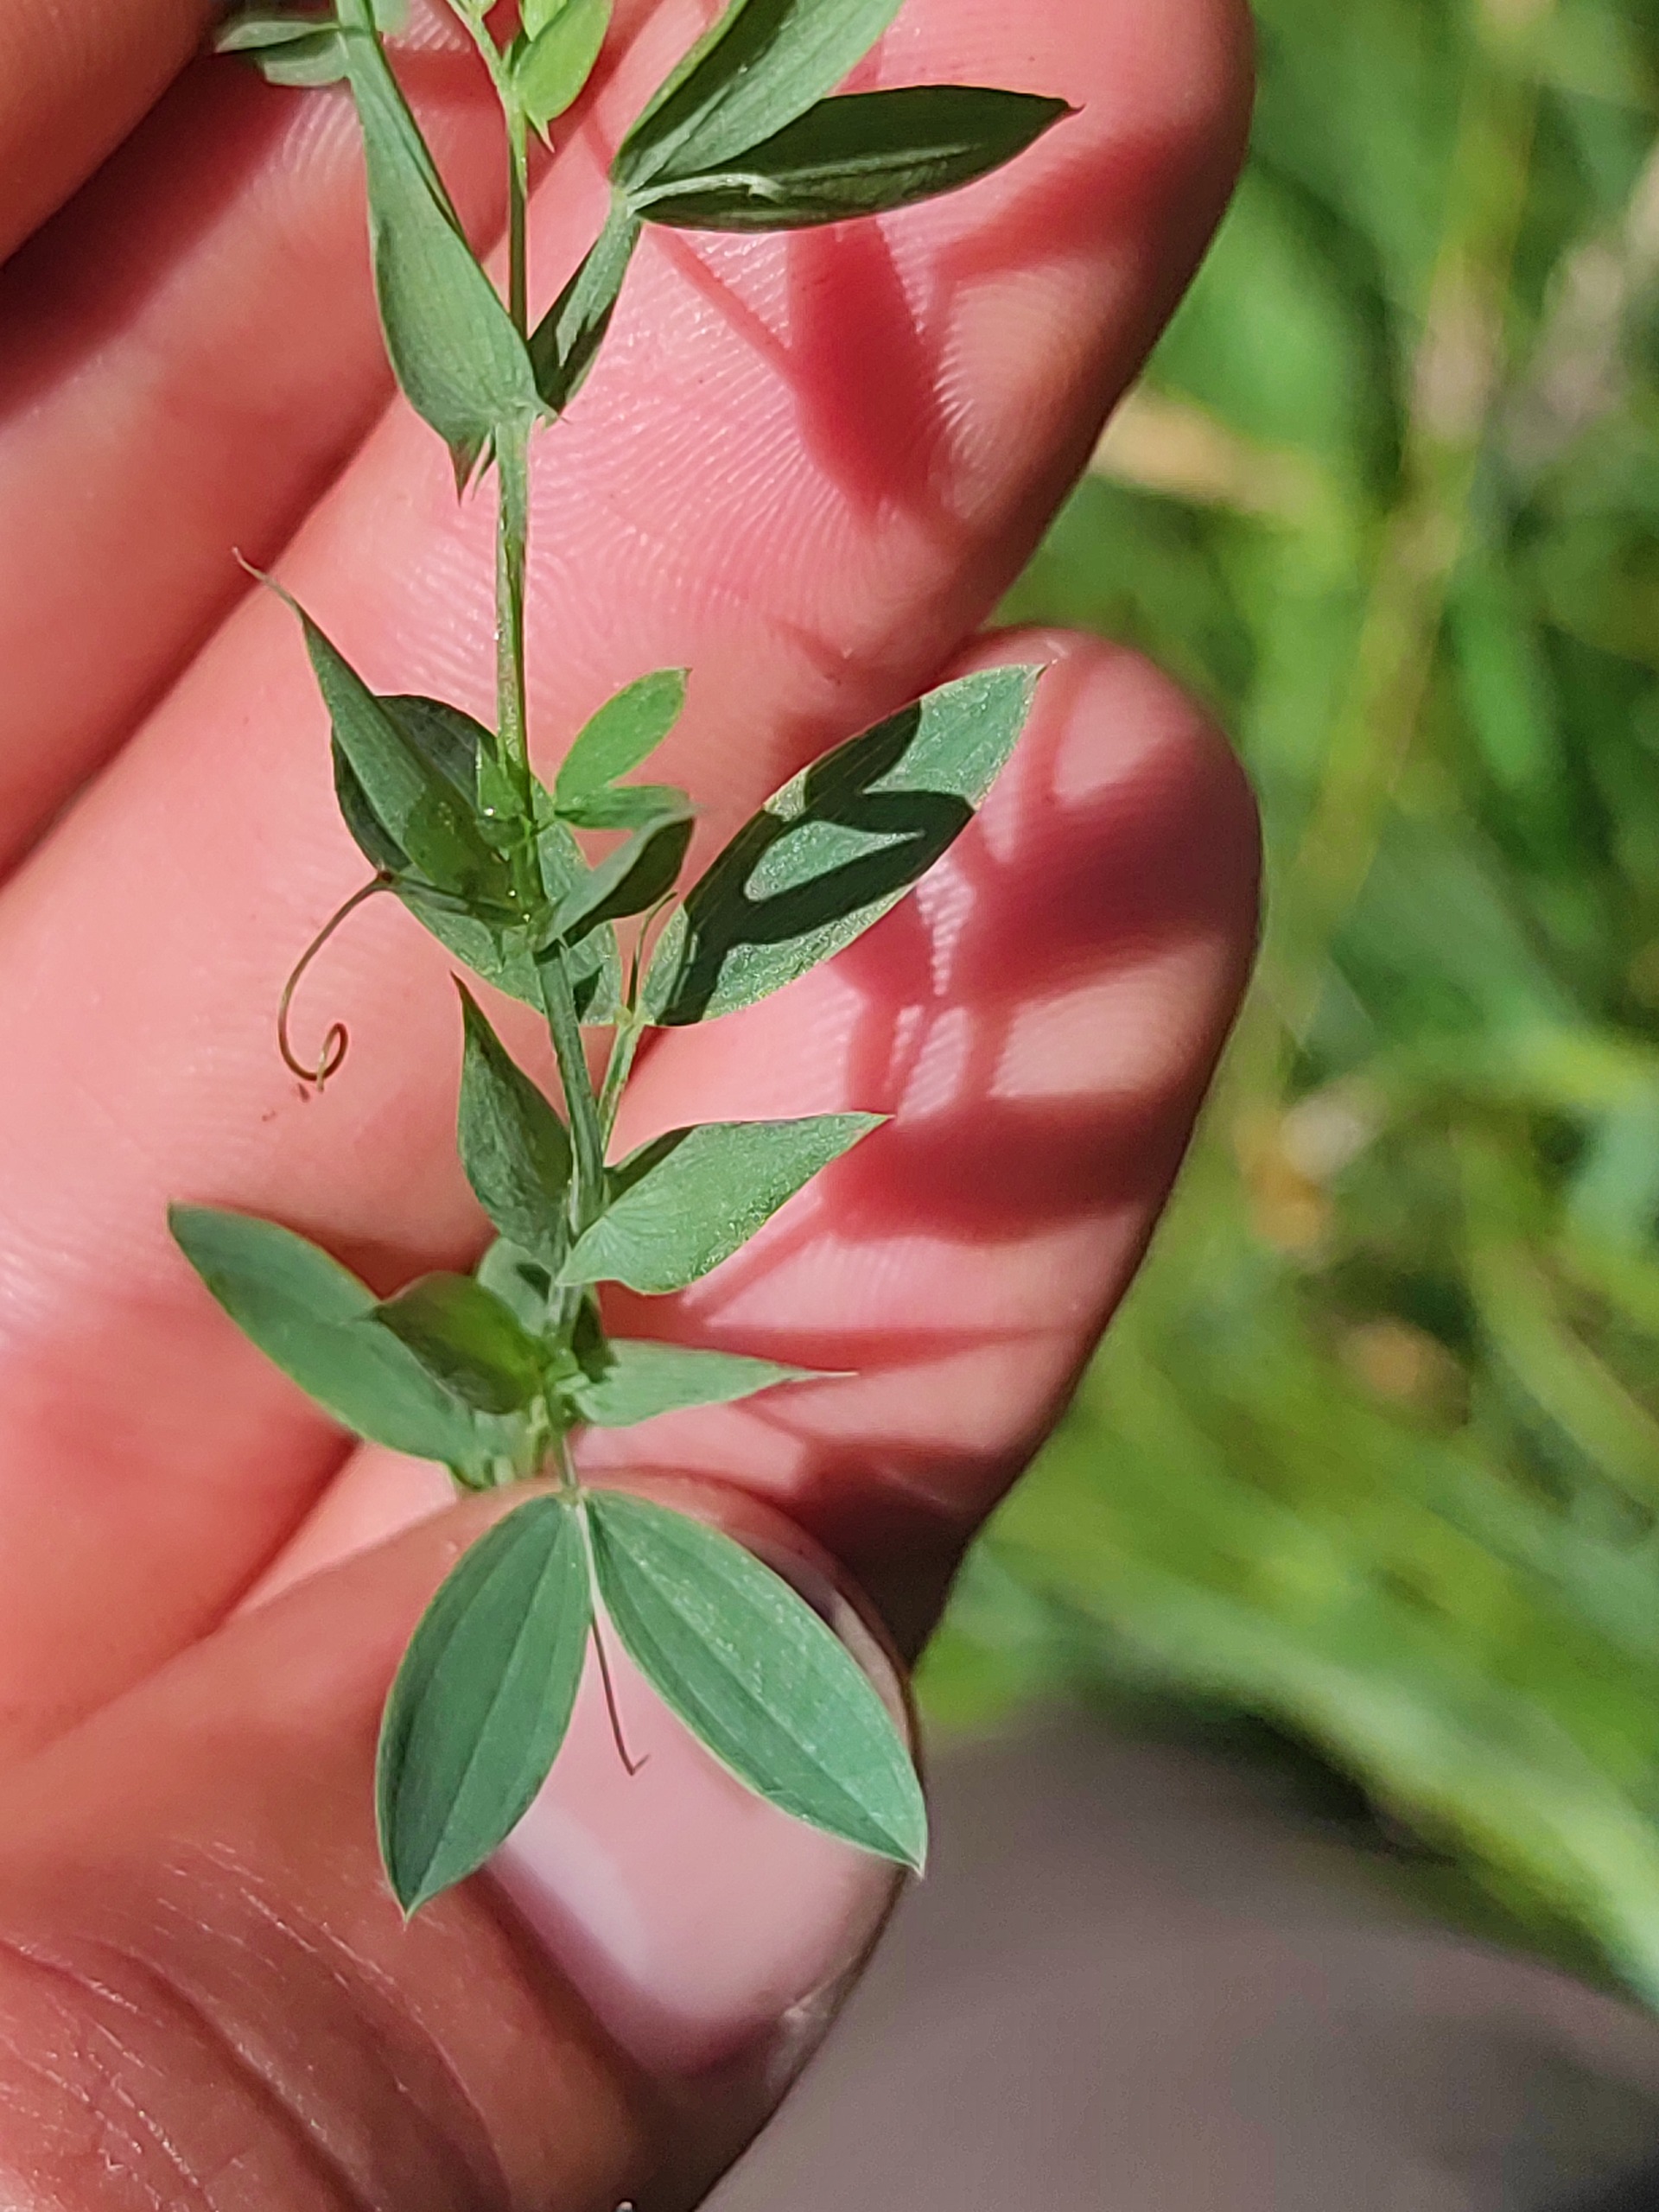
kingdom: Plantae
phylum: Tracheophyta
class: Magnoliopsida
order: Fabales
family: Fabaceae
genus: Lathyrus
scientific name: Lathyrus pratensis
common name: Gul fladbælg
